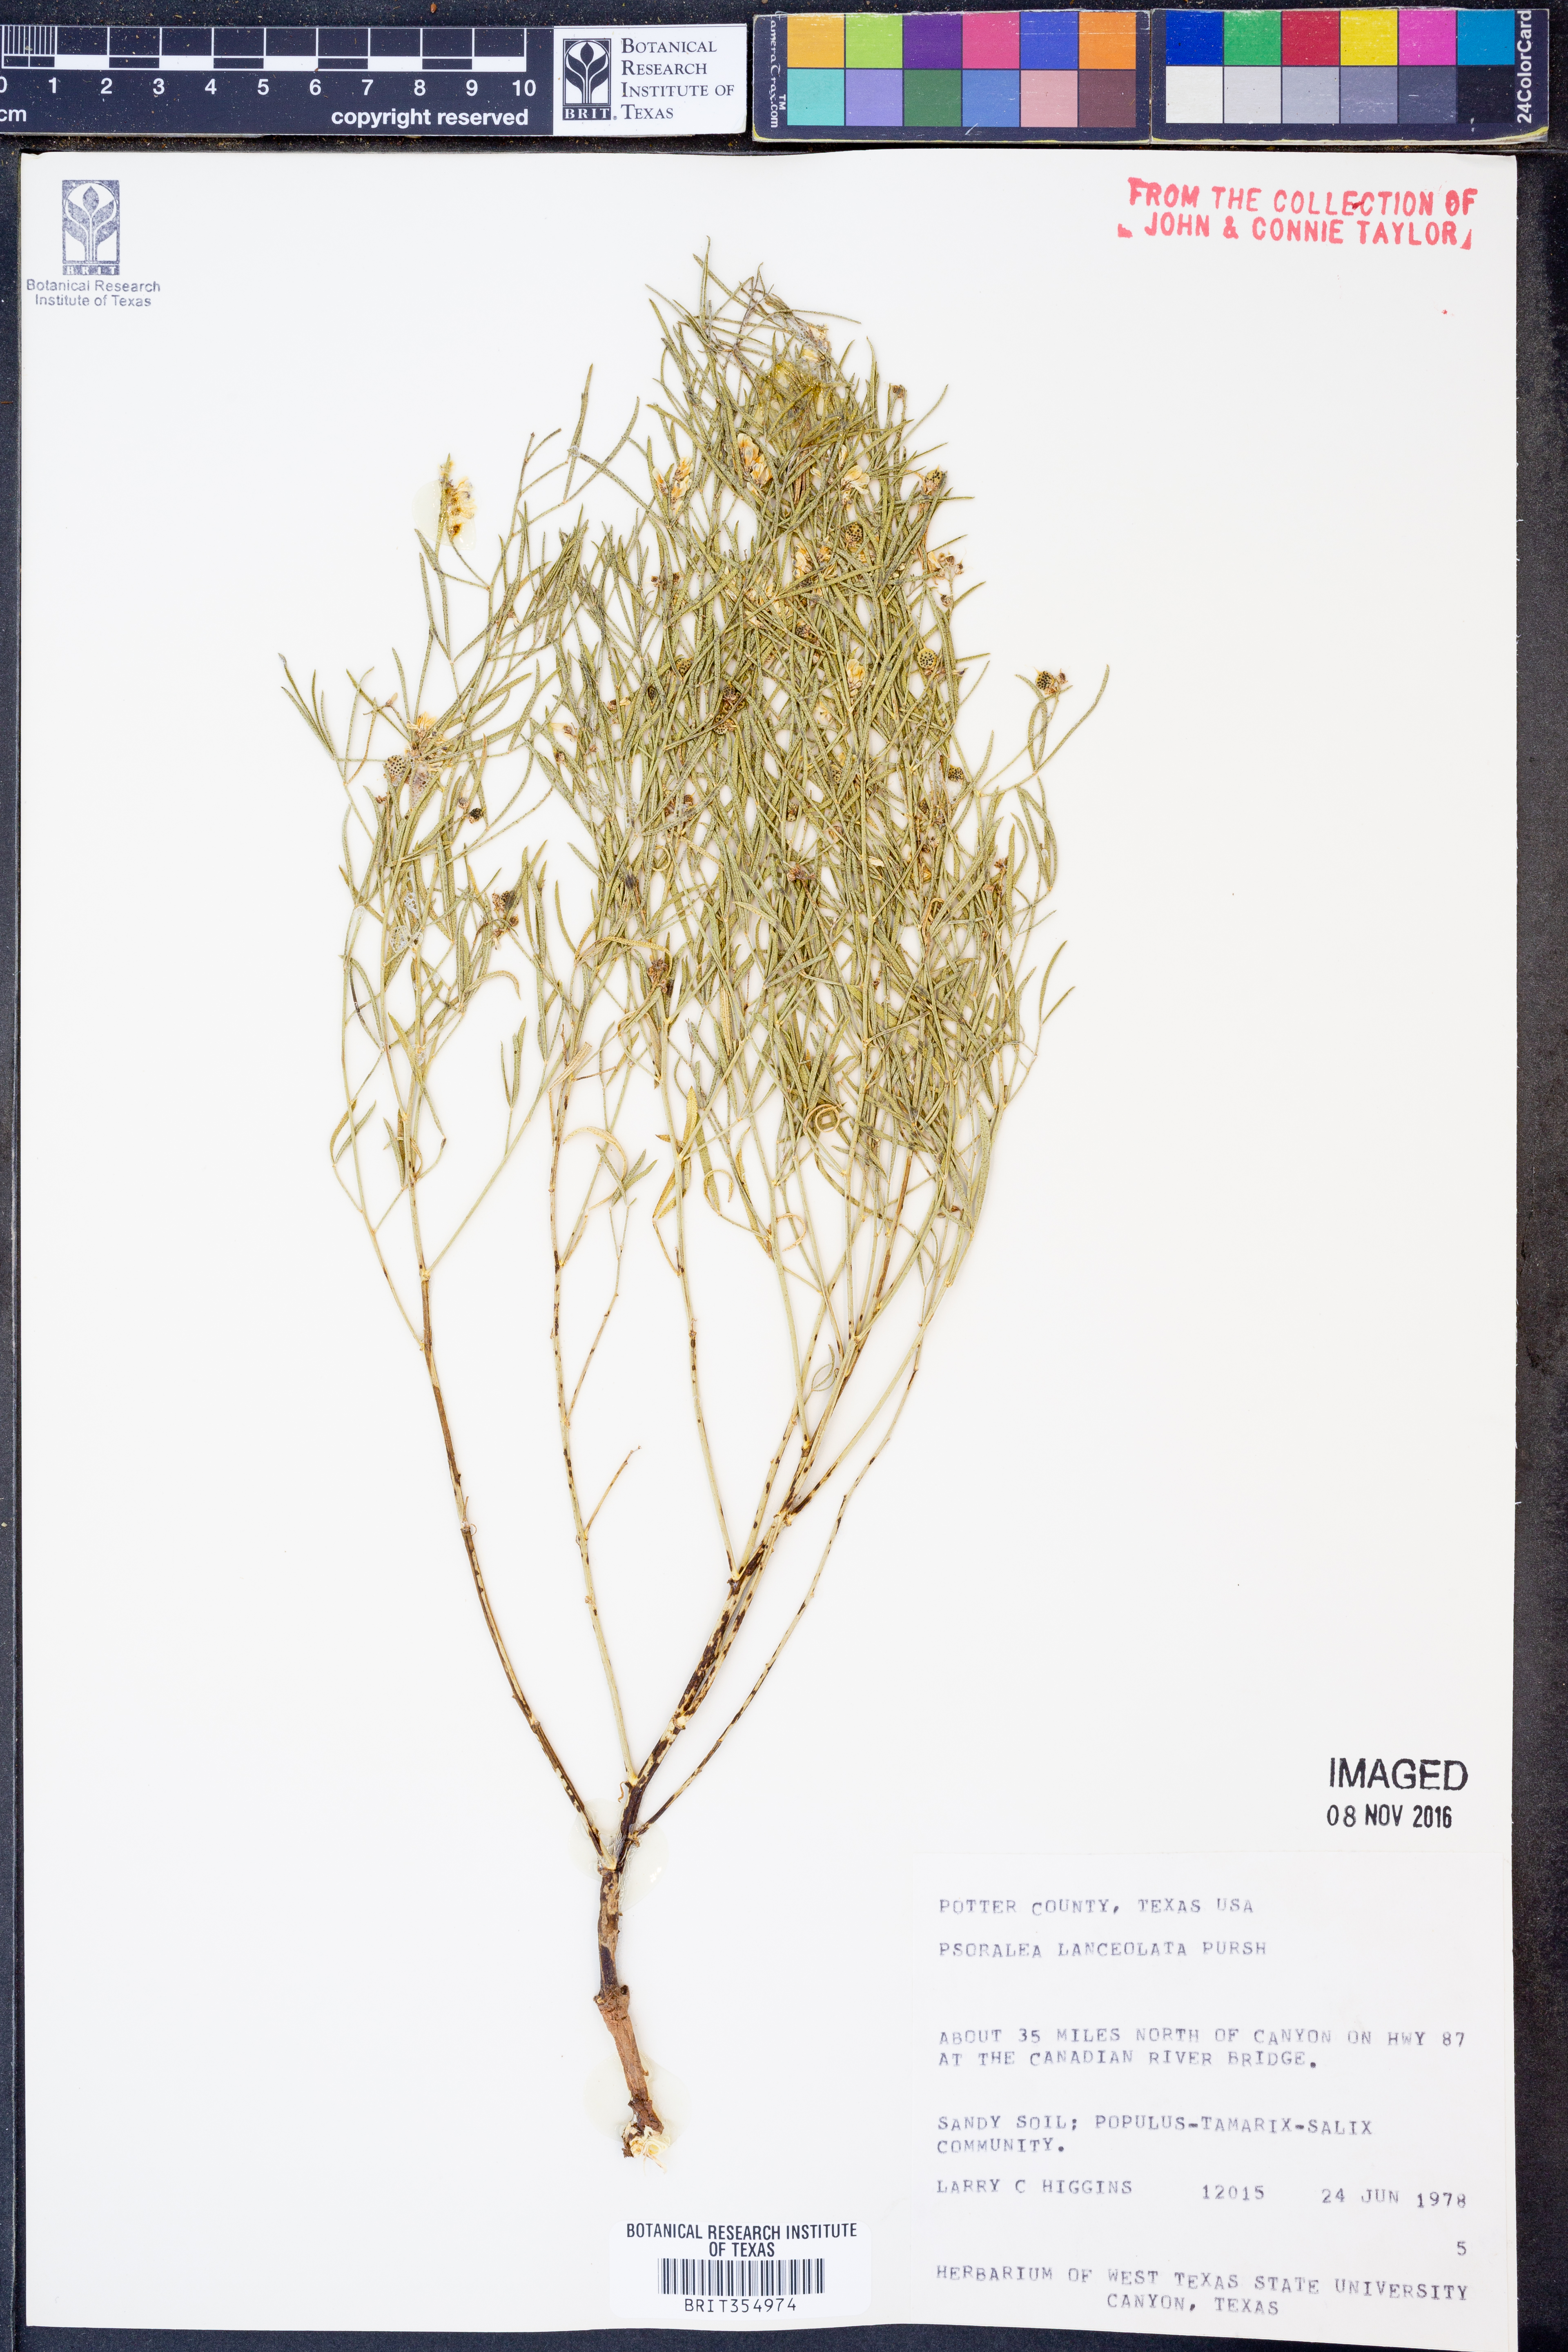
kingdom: Plantae
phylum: Tracheophyta
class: Magnoliopsida
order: Fabales
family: Fabaceae
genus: Ladeania
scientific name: Ladeania lanceolata
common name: Dune scurf-pea
